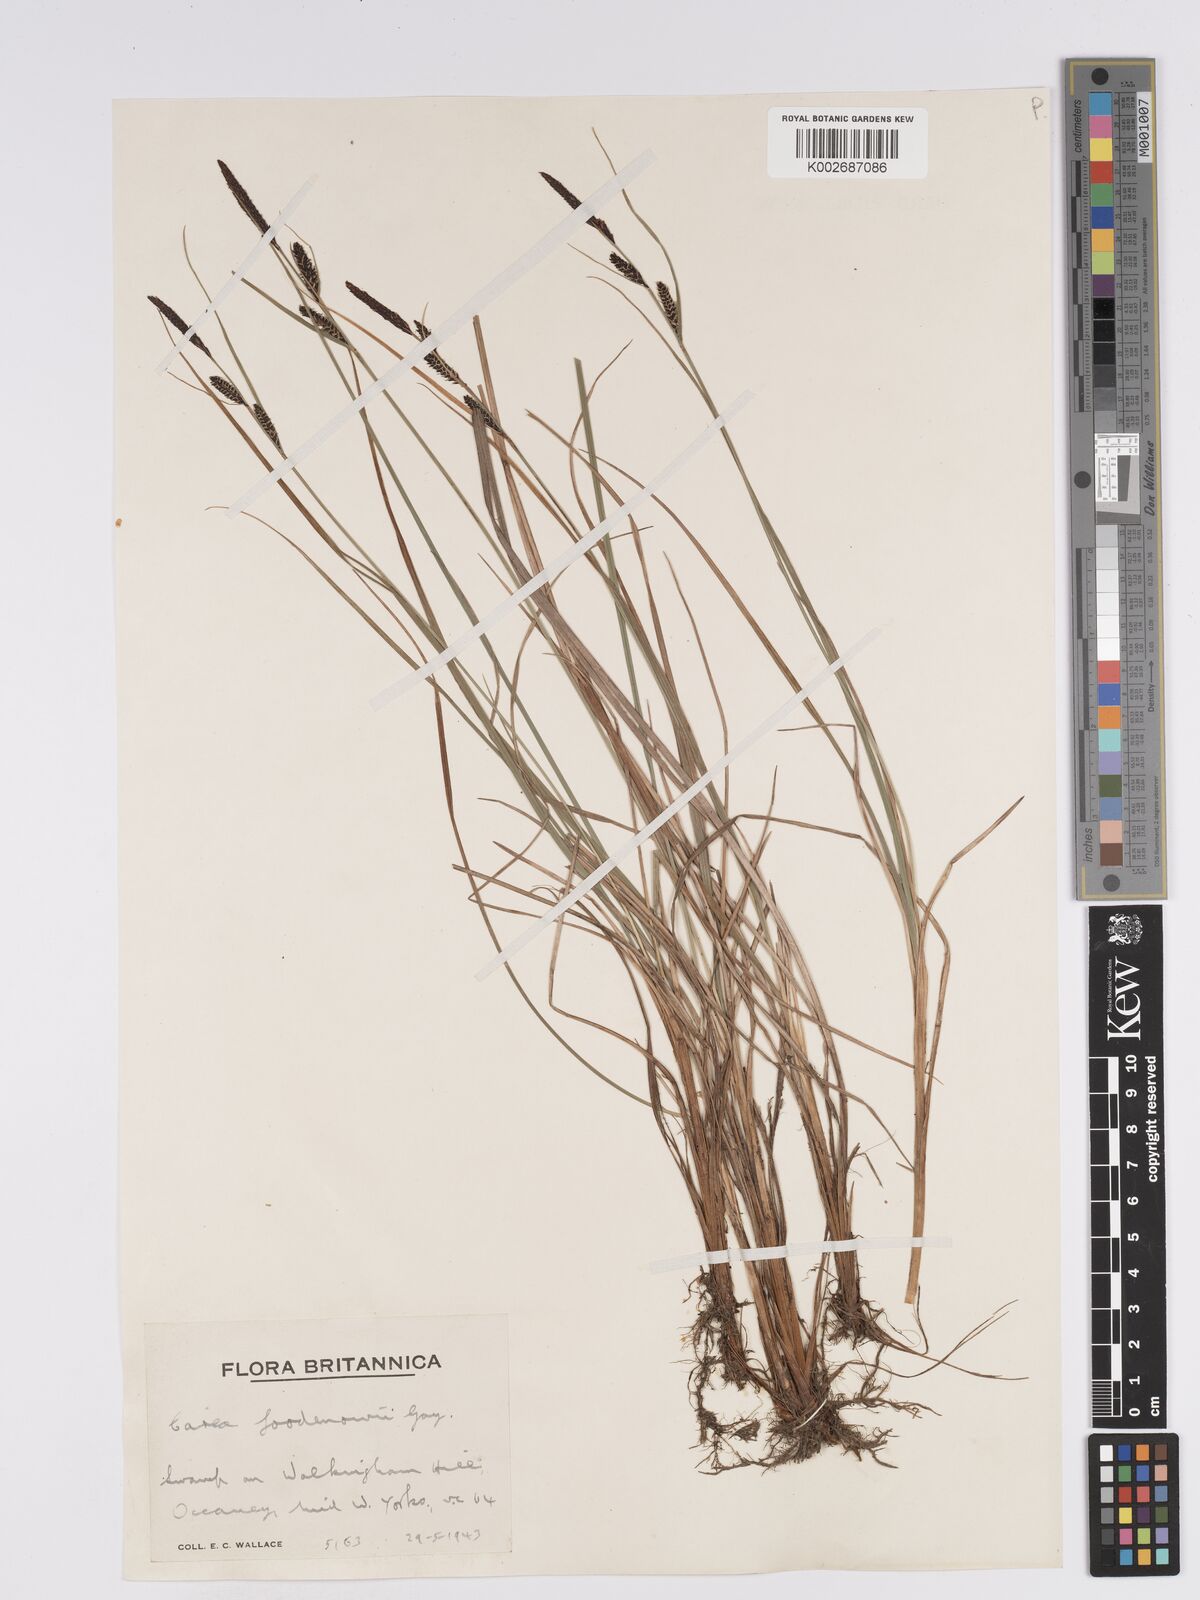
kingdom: Plantae
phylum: Tracheophyta
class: Liliopsida
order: Poales
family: Cyperaceae
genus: Carex
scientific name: Carex nigra
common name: Common sedge
